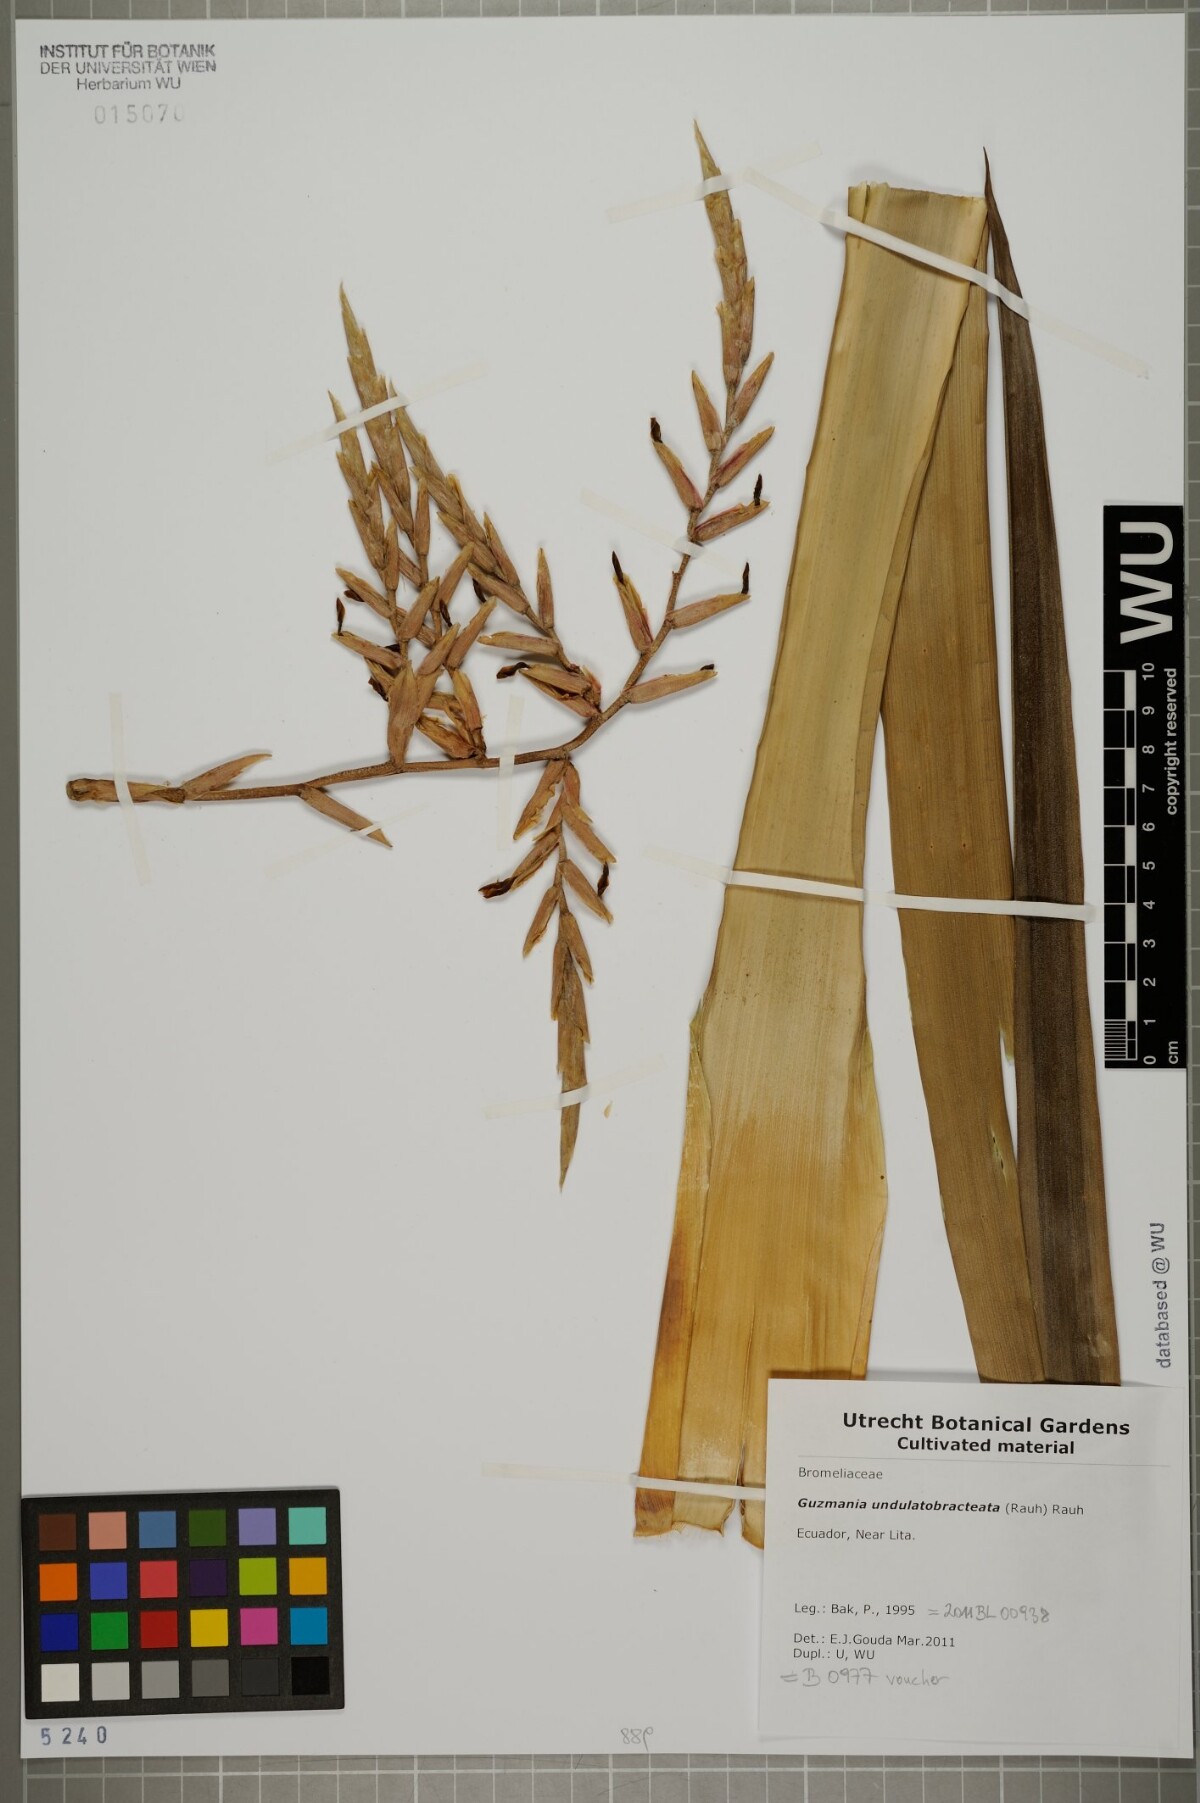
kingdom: Plantae
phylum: Tracheophyta
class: Liliopsida
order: Poales
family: Bromeliaceae
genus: Guzmania
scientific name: Guzmania undulatobracteata
